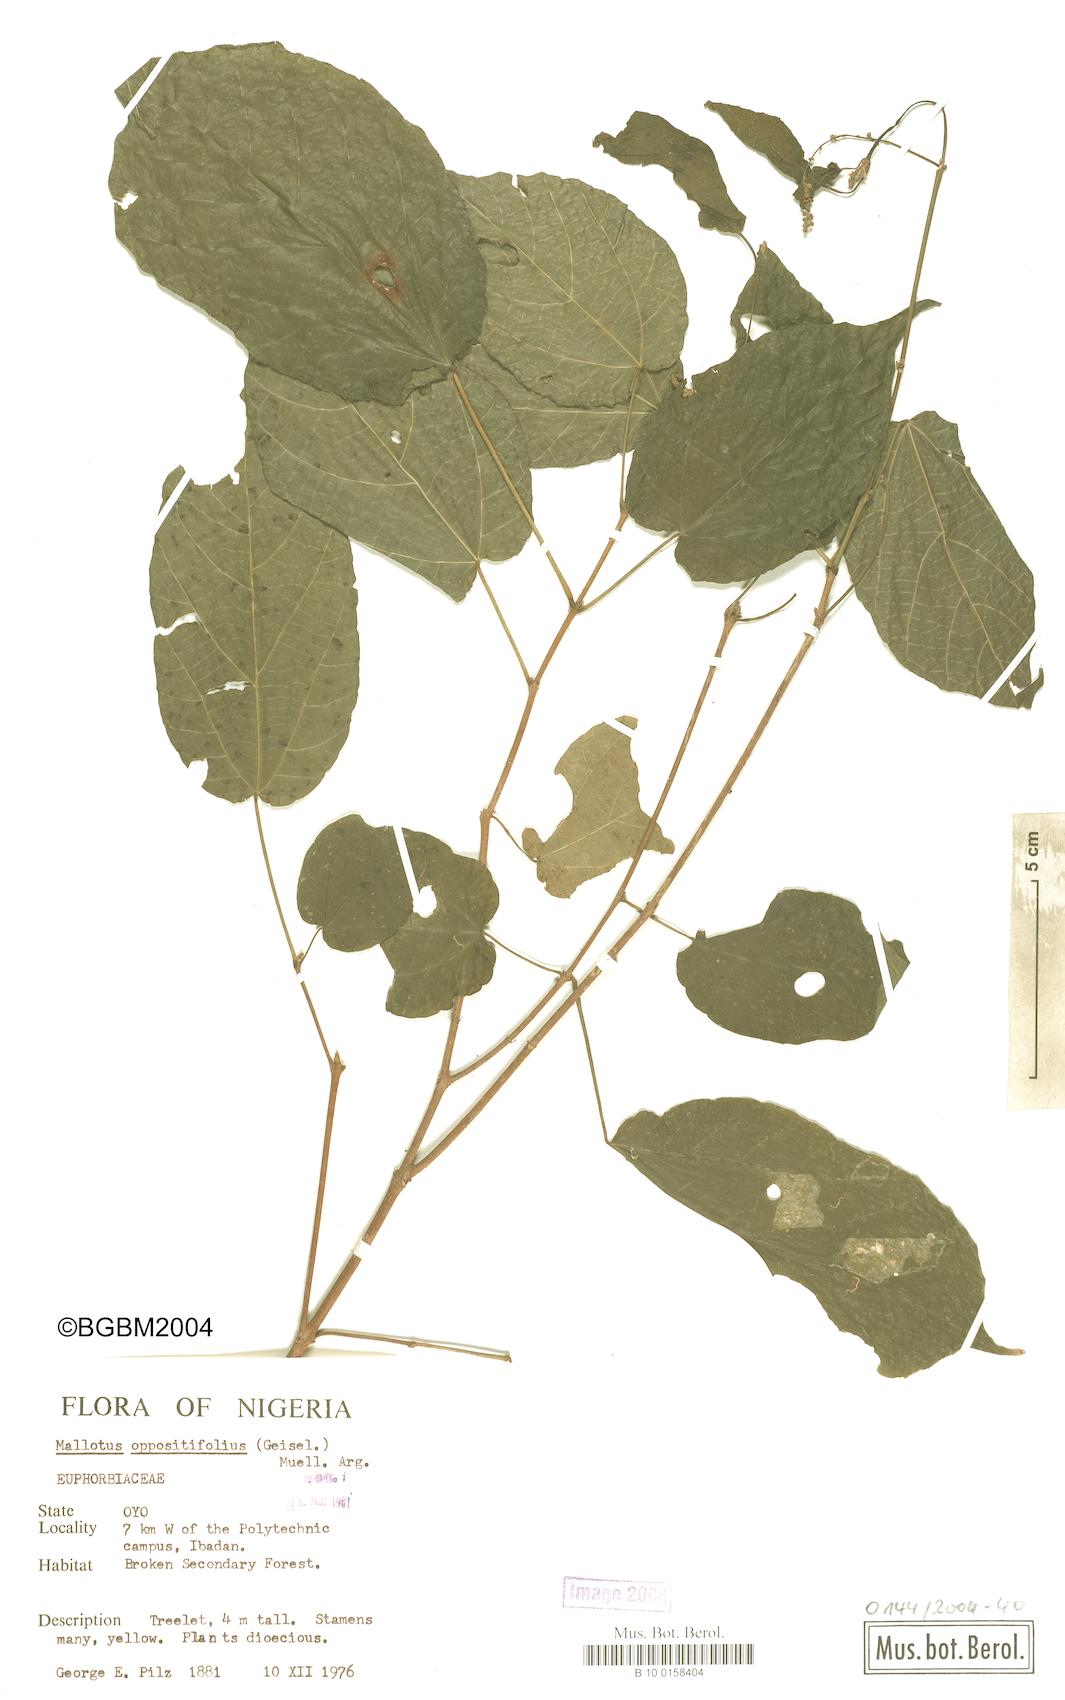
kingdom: Plantae
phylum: Tracheophyta
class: Magnoliopsida
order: Malpighiales
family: Euphorbiaceae
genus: Mallotus
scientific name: Mallotus oppositifolius
